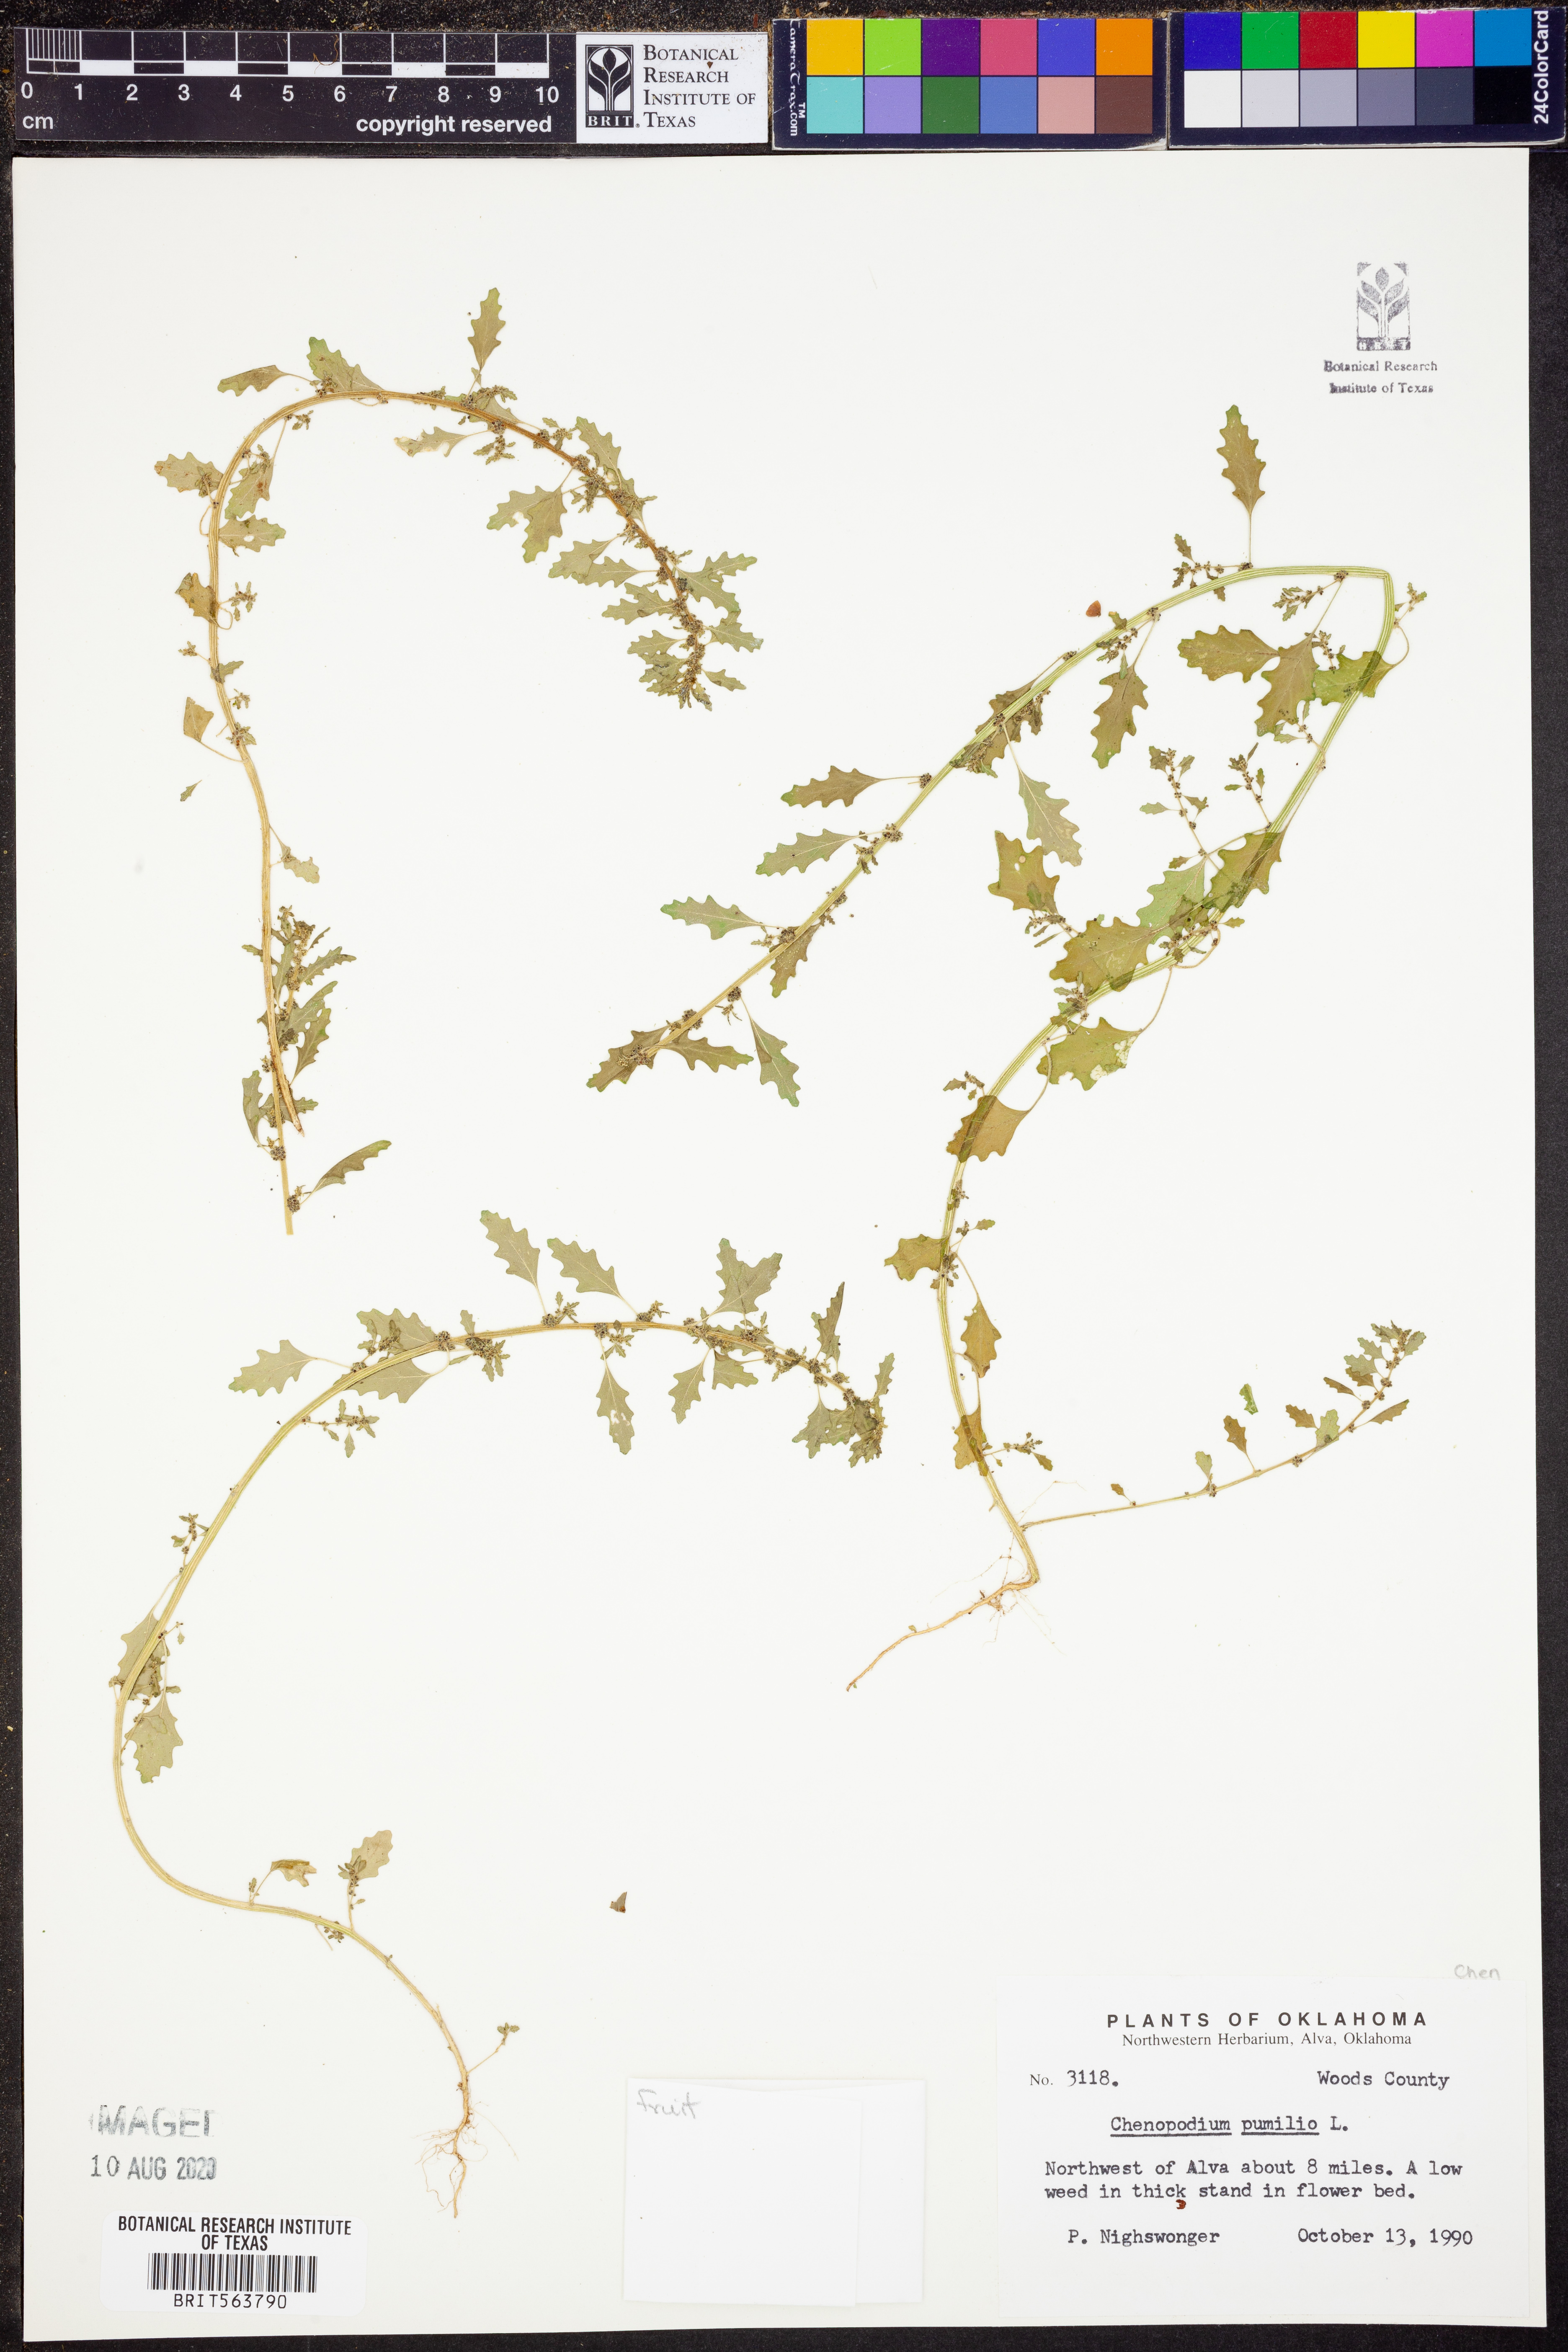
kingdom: Plantae
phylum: Tracheophyta
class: Magnoliopsida
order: Caryophyllales
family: Amaranthaceae
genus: Dysphania
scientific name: Dysphania pumilio
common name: Clammy goosefoot
